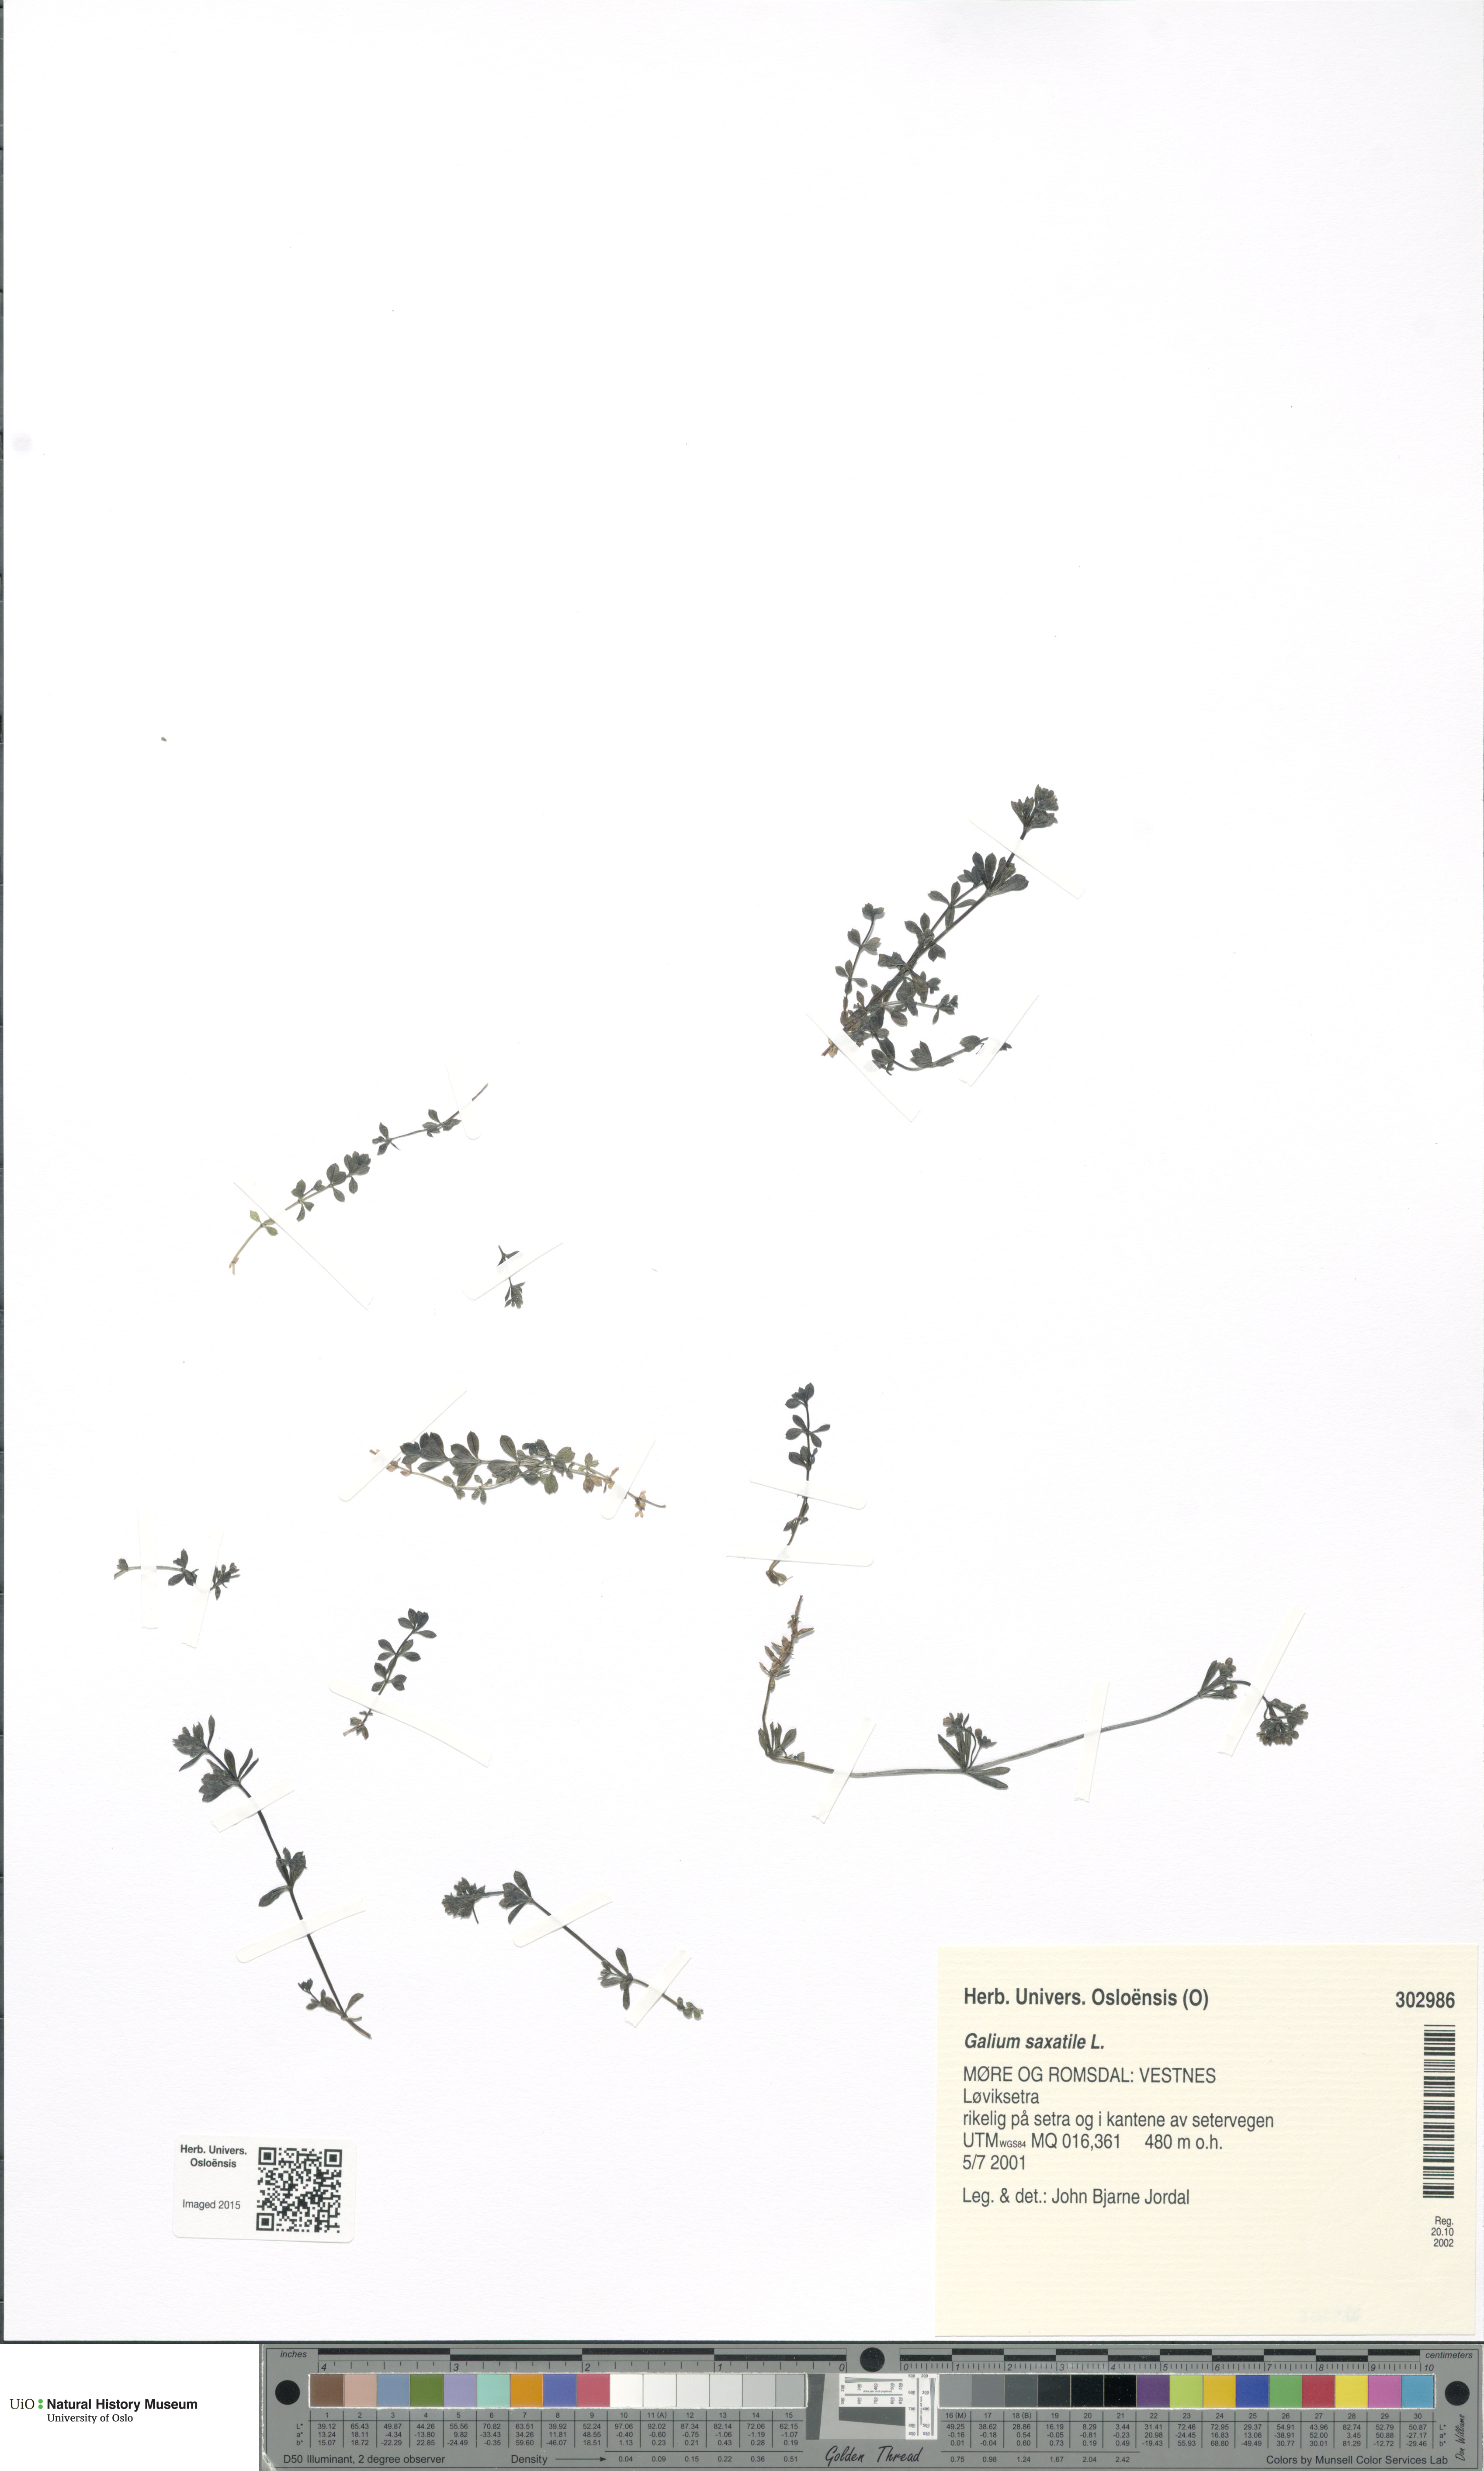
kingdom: Plantae
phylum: Tracheophyta
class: Magnoliopsida
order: Gentianales
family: Rubiaceae
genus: Galium
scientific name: Galium saxatile
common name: Heath bedstraw
